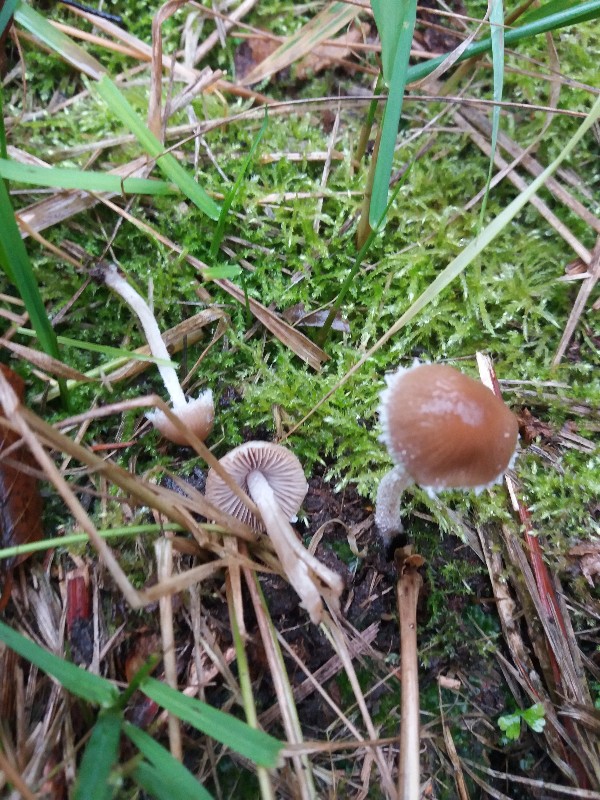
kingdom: Fungi
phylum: Basidiomycota
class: Agaricomycetes
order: Agaricales
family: Psathyrellaceae
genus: Psathyrella
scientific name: Psathyrella
